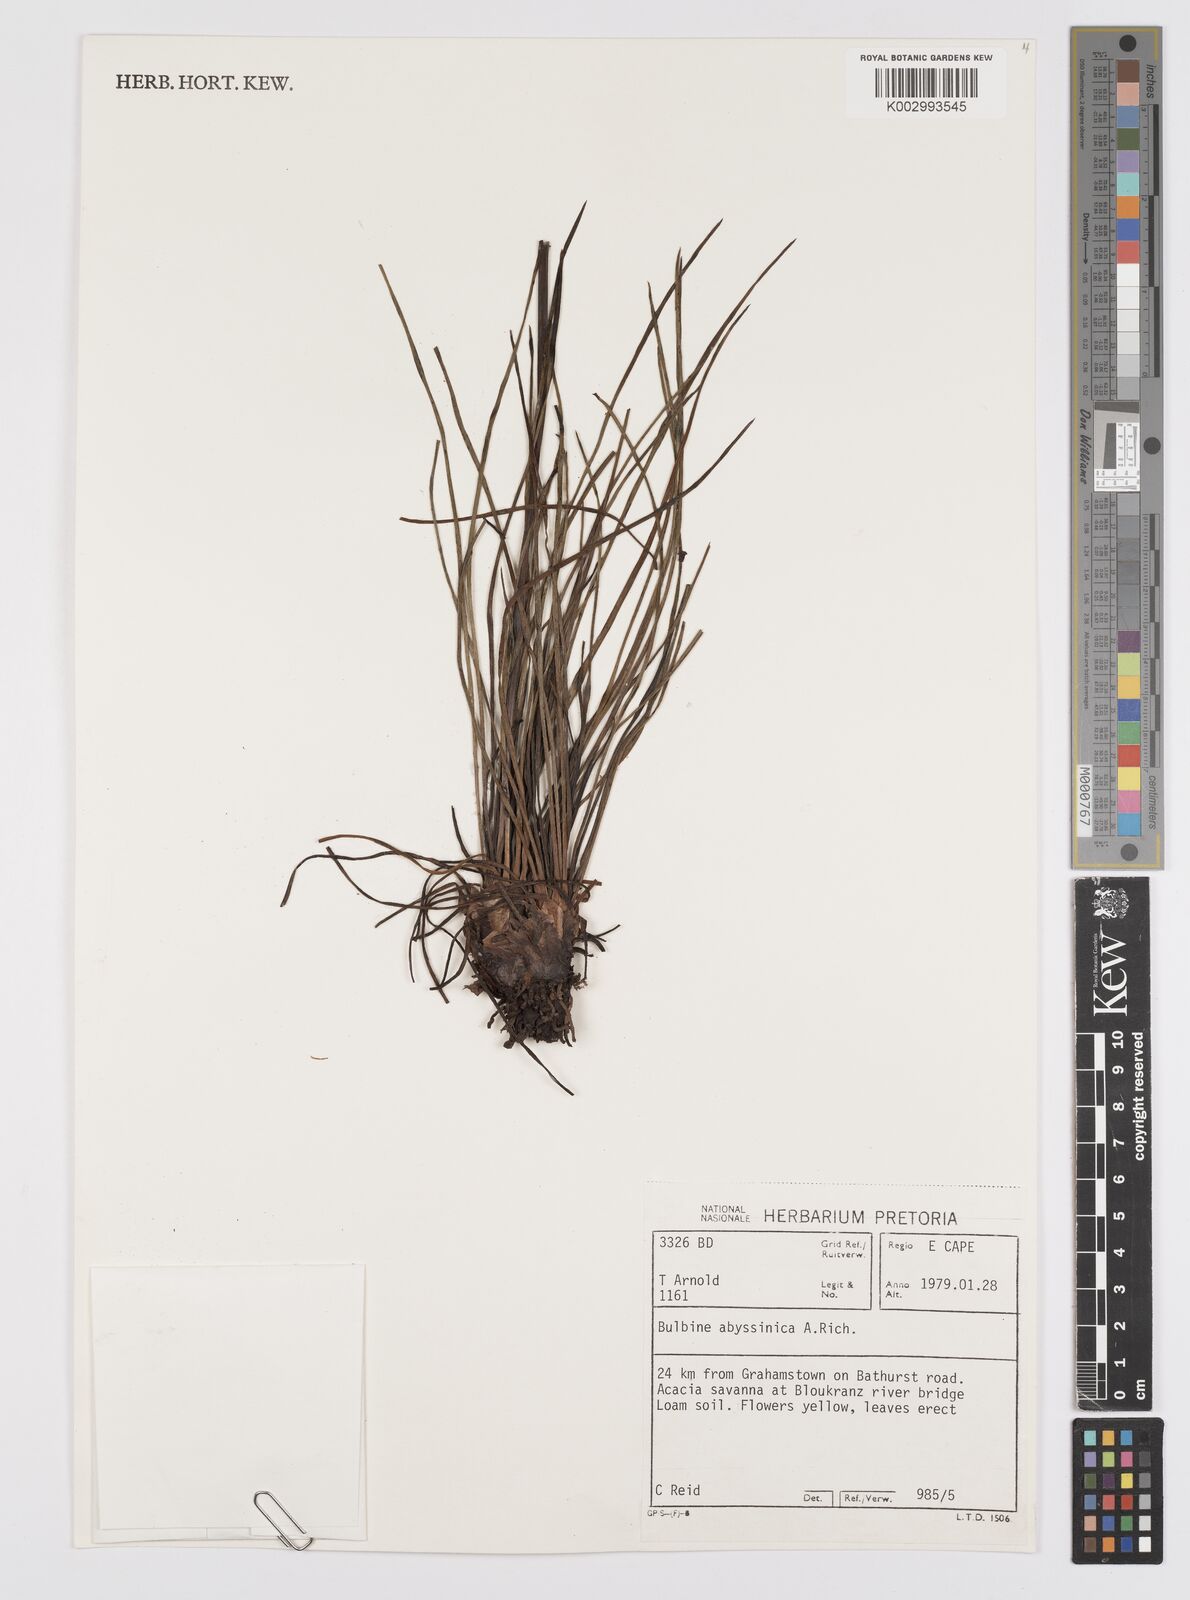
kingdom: Plantae
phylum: Tracheophyta
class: Liliopsida
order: Asparagales
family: Asphodelaceae
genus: Bulbine
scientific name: Bulbine abyssinica
